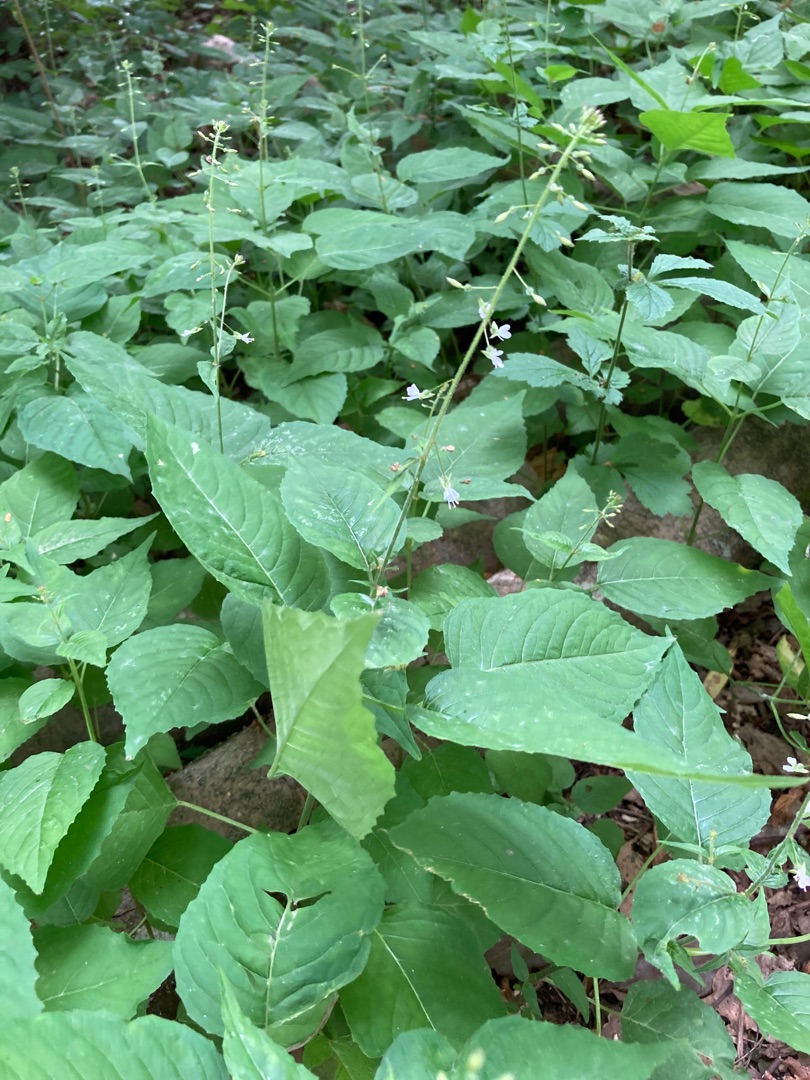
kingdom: Plantae
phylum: Tracheophyta
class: Magnoliopsida
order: Myrtales
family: Onagraceae
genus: Circaea
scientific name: Circaea lutetiana
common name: Dunet steffensurt
